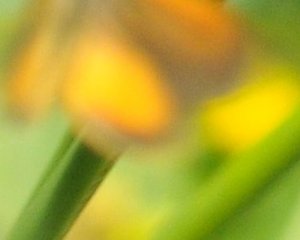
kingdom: Animalia
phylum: Arthropoda
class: Insecta
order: Lepidoptera
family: Hesperiidae
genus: Ancyloxypha
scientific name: Ancyloxypha numitor
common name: Least Skipper
